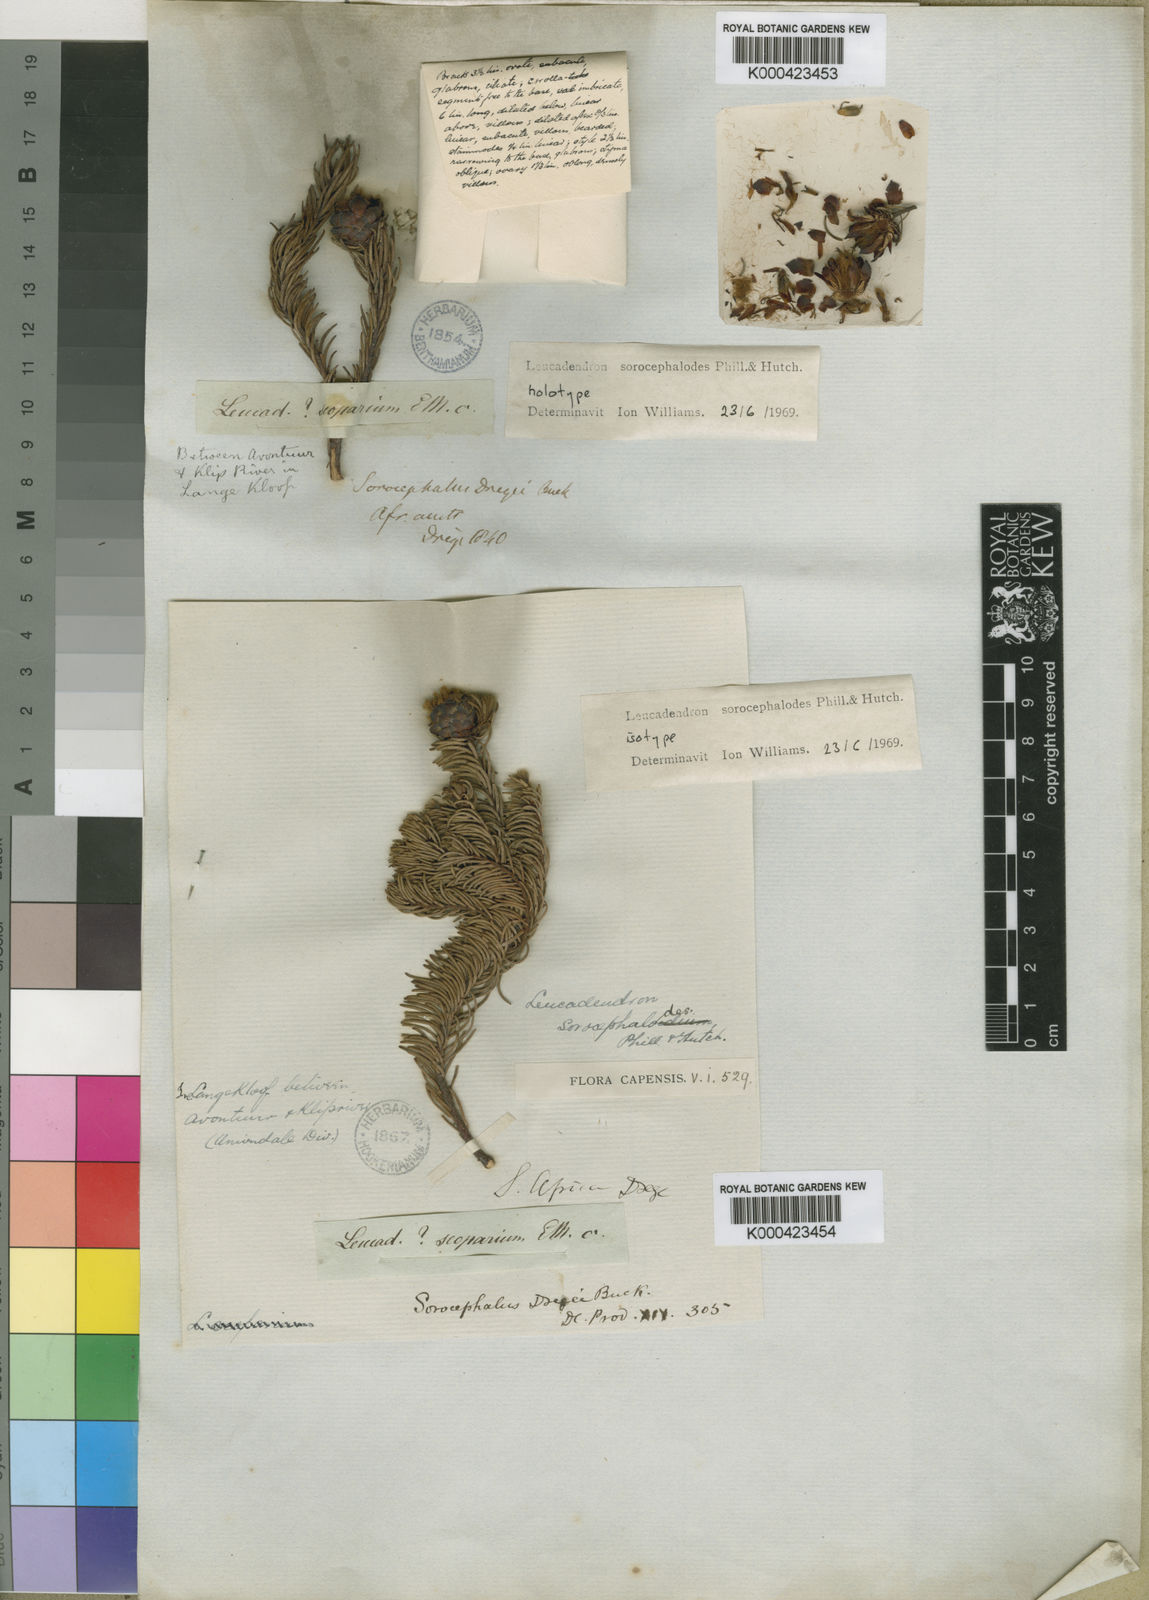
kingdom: Plantae
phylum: Tracheophyta
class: Magnoliopsida
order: Proteales
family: Proteaceae
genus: Leucadendron
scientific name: Leucadendron sorocephalodes
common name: Woolly conebush
